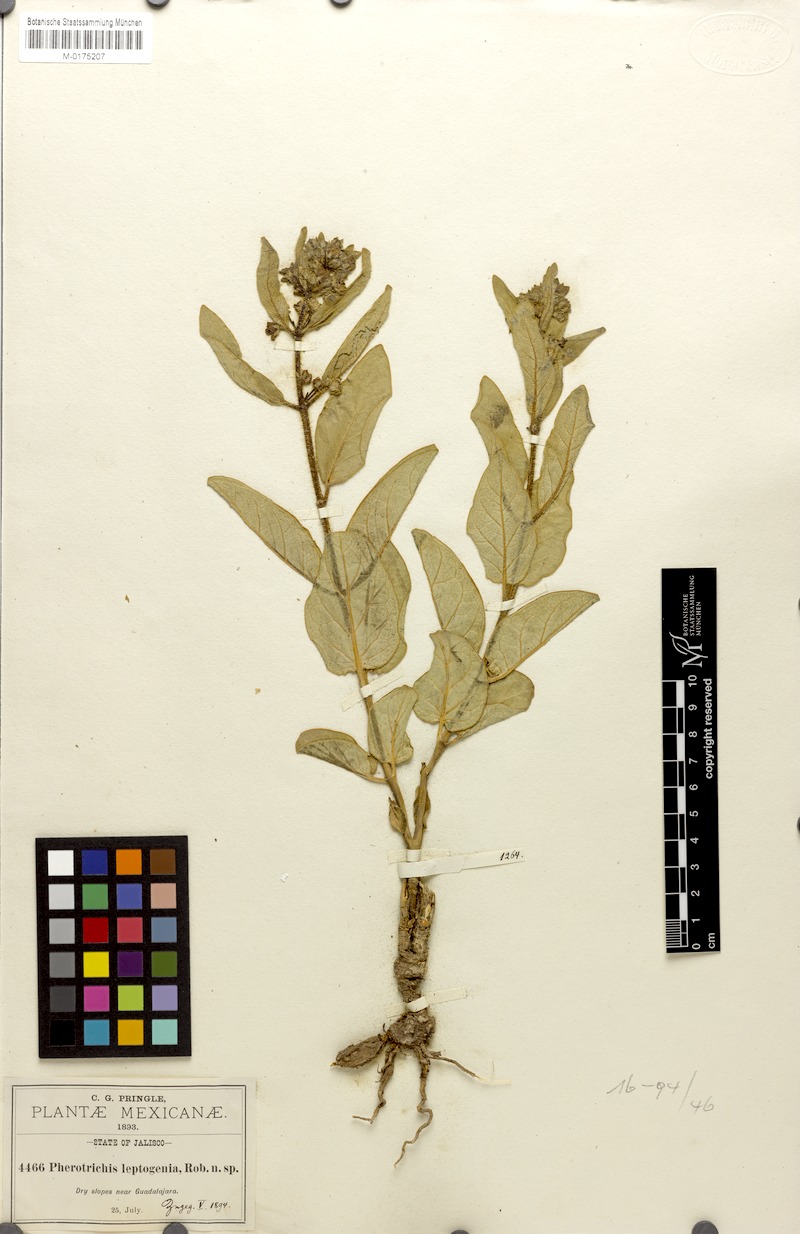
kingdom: Plantae
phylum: Tracheophyta
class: Magnoliopsida
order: Gentianales
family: Apocynaceae
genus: Pherotrichis
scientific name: Pherotrichis leptogenia
